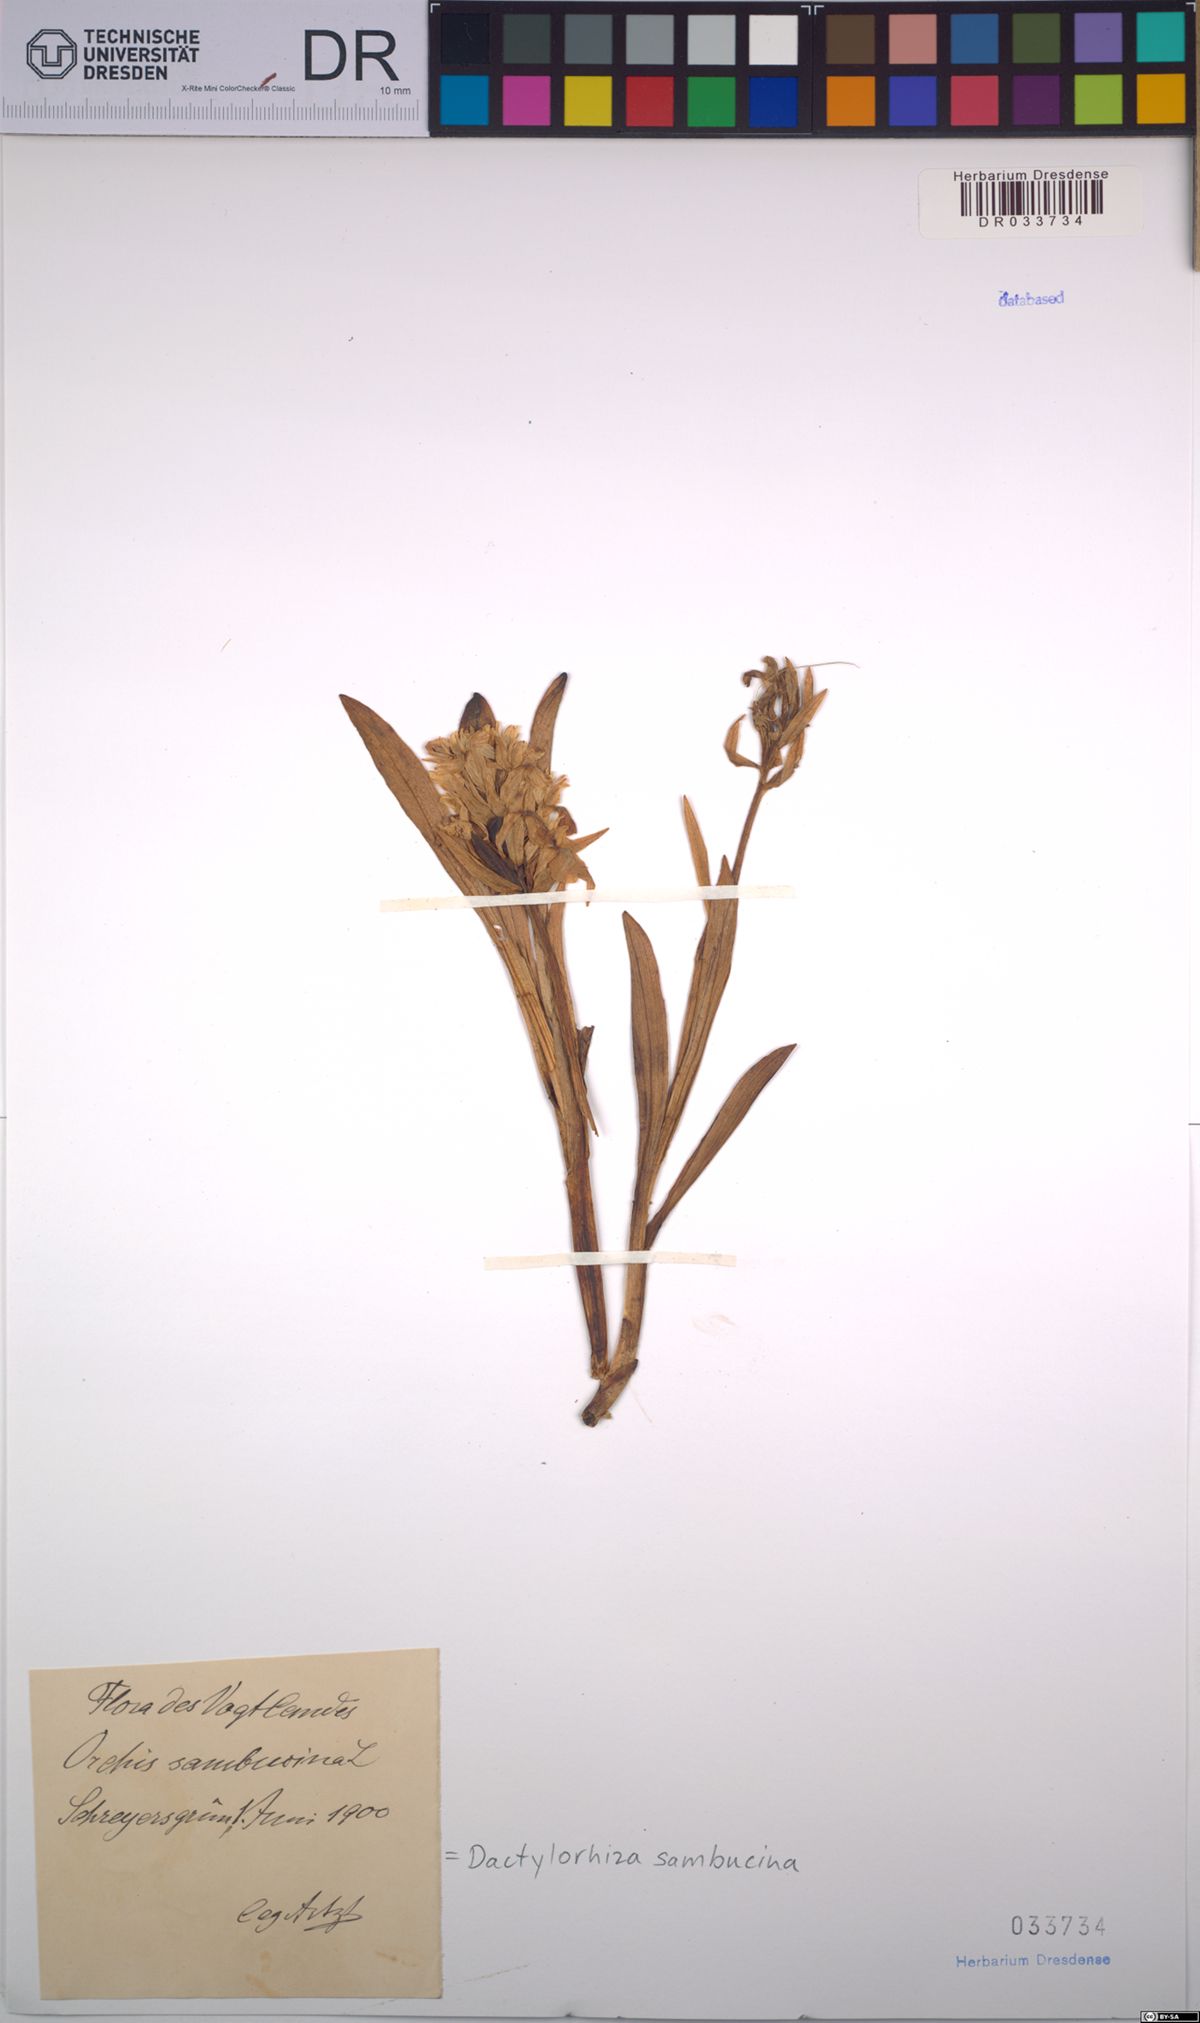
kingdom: Plantae
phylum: Tracheophyta
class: Liliopsida
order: Asparagales
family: Orchidaceae
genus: Dactylorhiza
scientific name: Dactylorhiza sambucina
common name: Elder-flowered orchid
